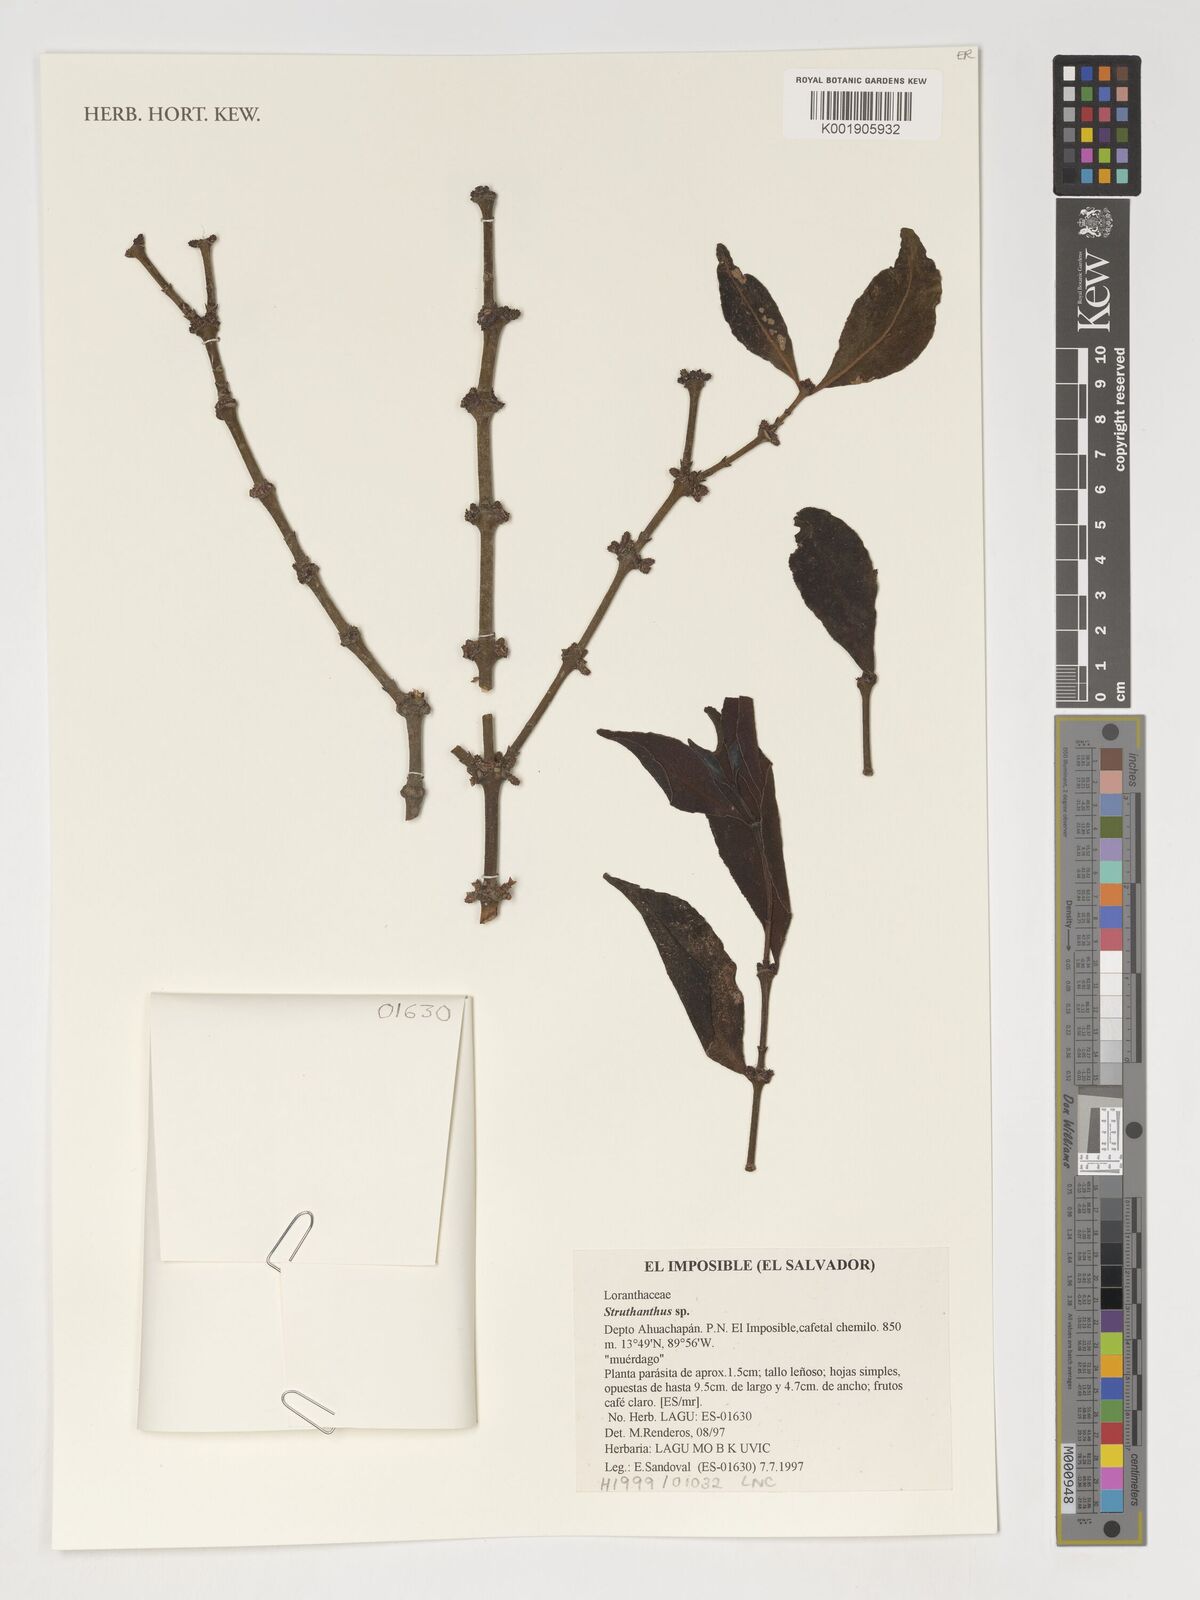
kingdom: Plantae
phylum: Tracheophyta
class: Magnoliopsida
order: Santalales
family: Loranthaceae
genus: Struthanthus
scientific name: Struthanthus
